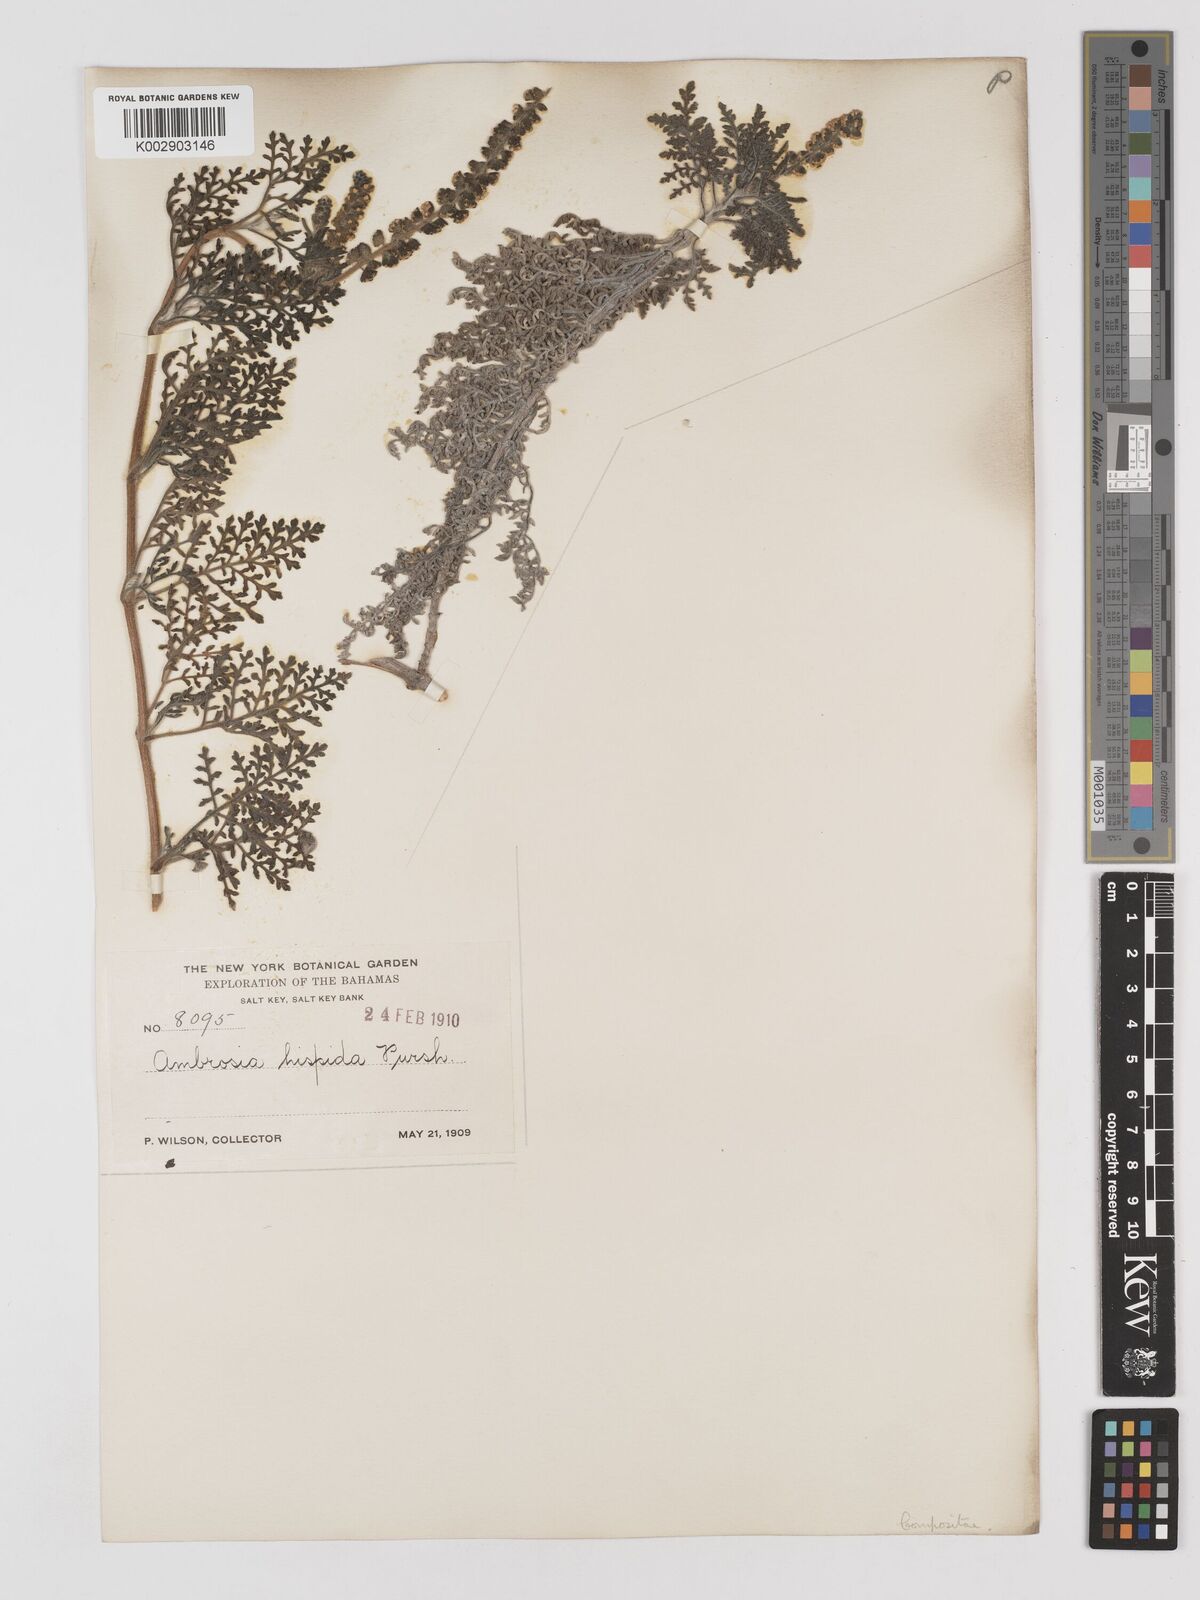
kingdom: Plantae
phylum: Tracheophyta
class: Magnoliopsida
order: Asterales
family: Asteraceae
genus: Ambrosia
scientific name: Ambrosia hispida
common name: Coastal ragweed
